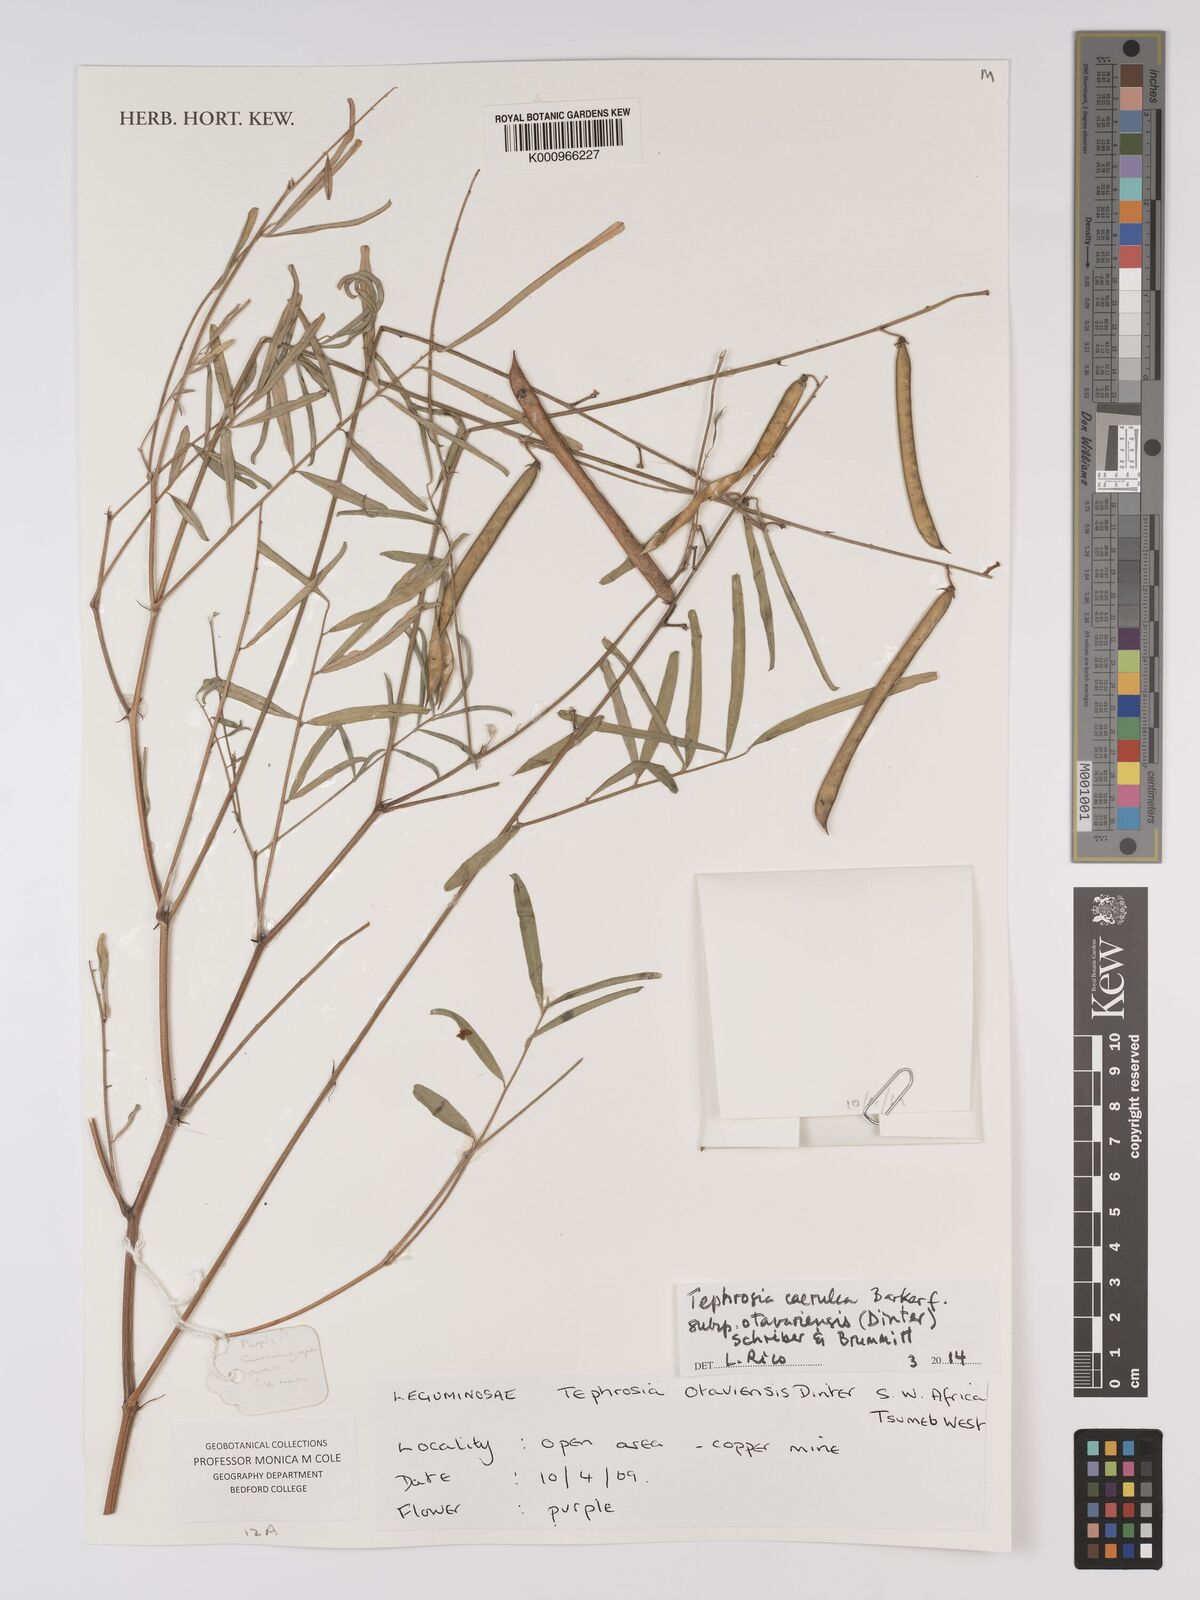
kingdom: Plantae
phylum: Tracheophyta
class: Magnoliopsida
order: Fabales
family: Fabaceae
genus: Tephrosia
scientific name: Tephrosia caerulea
